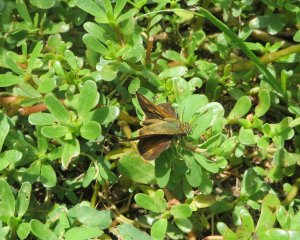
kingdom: Animalia
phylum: Arthropoda
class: Insecta
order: Lepidoptera
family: Hesperiidae
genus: Polites
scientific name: Polites egeremet
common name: Northern Broken-Dash
